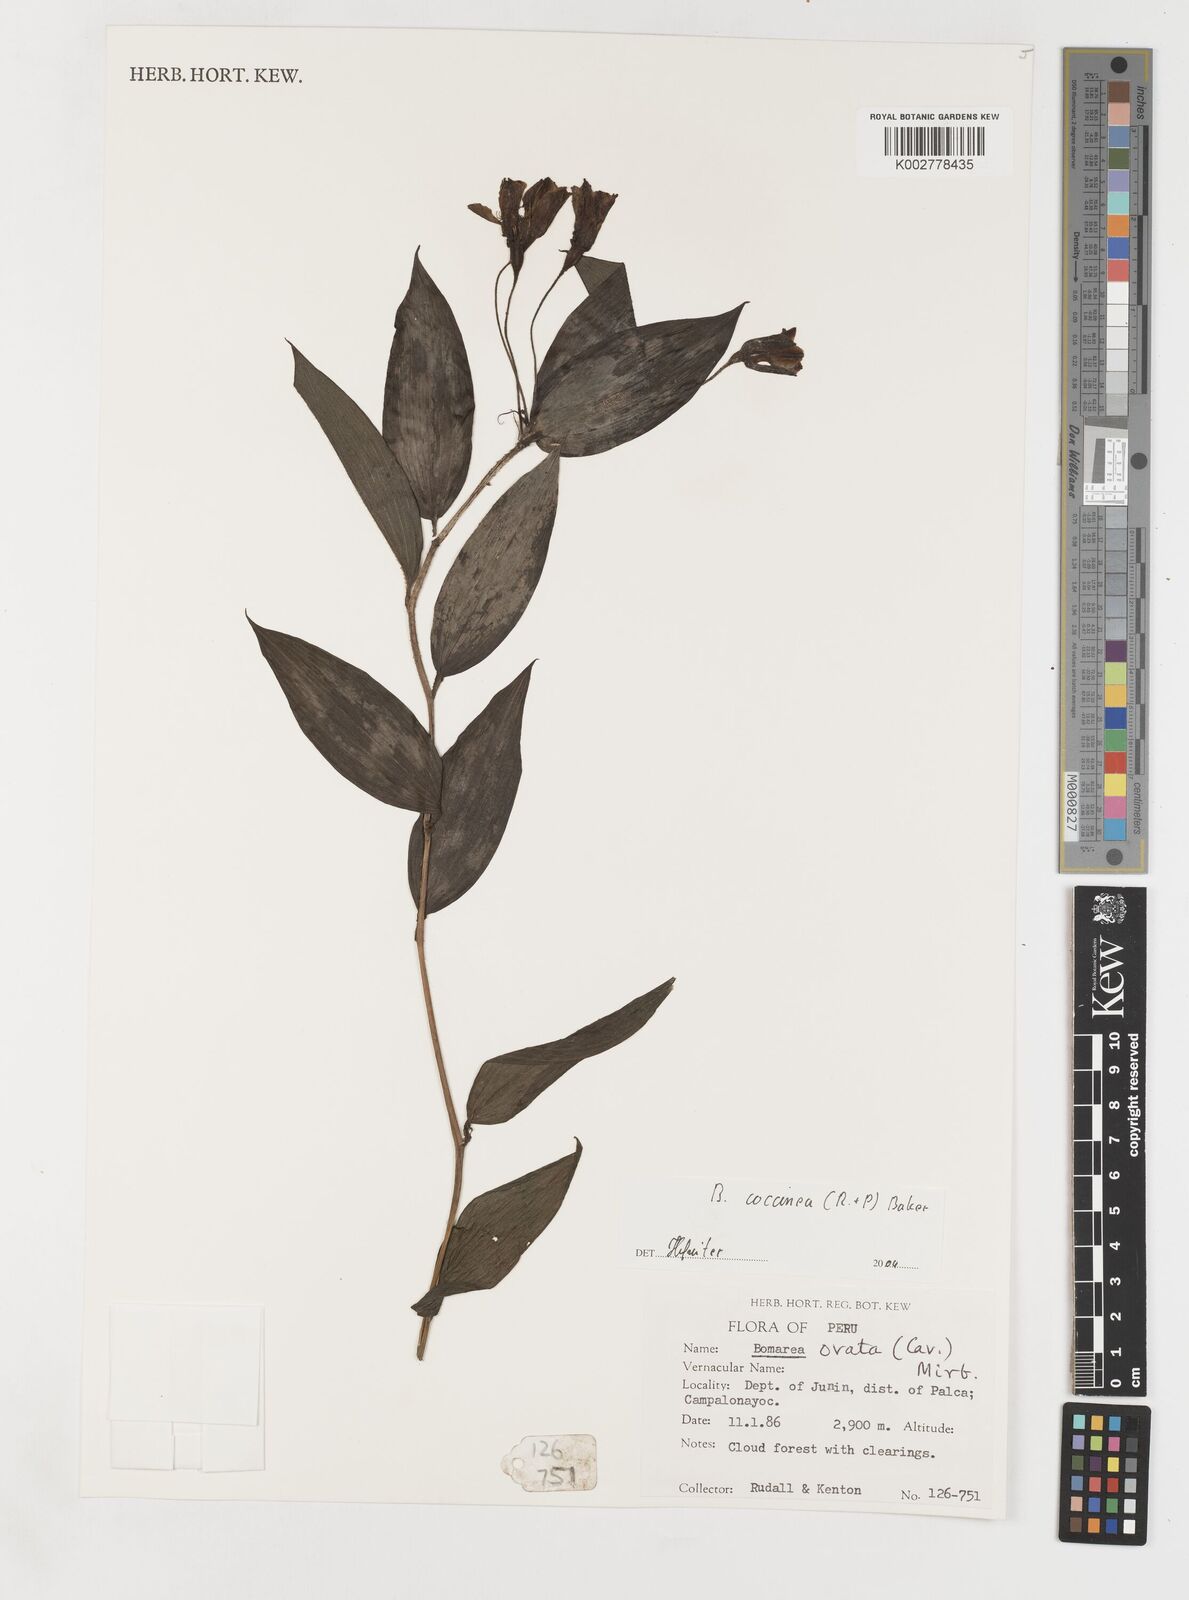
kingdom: Plantae
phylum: Tracheophyta
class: Liliopsida
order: Liliales
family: Alstroemeriaceae
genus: Bomarea
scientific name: Bomarea coccinea
